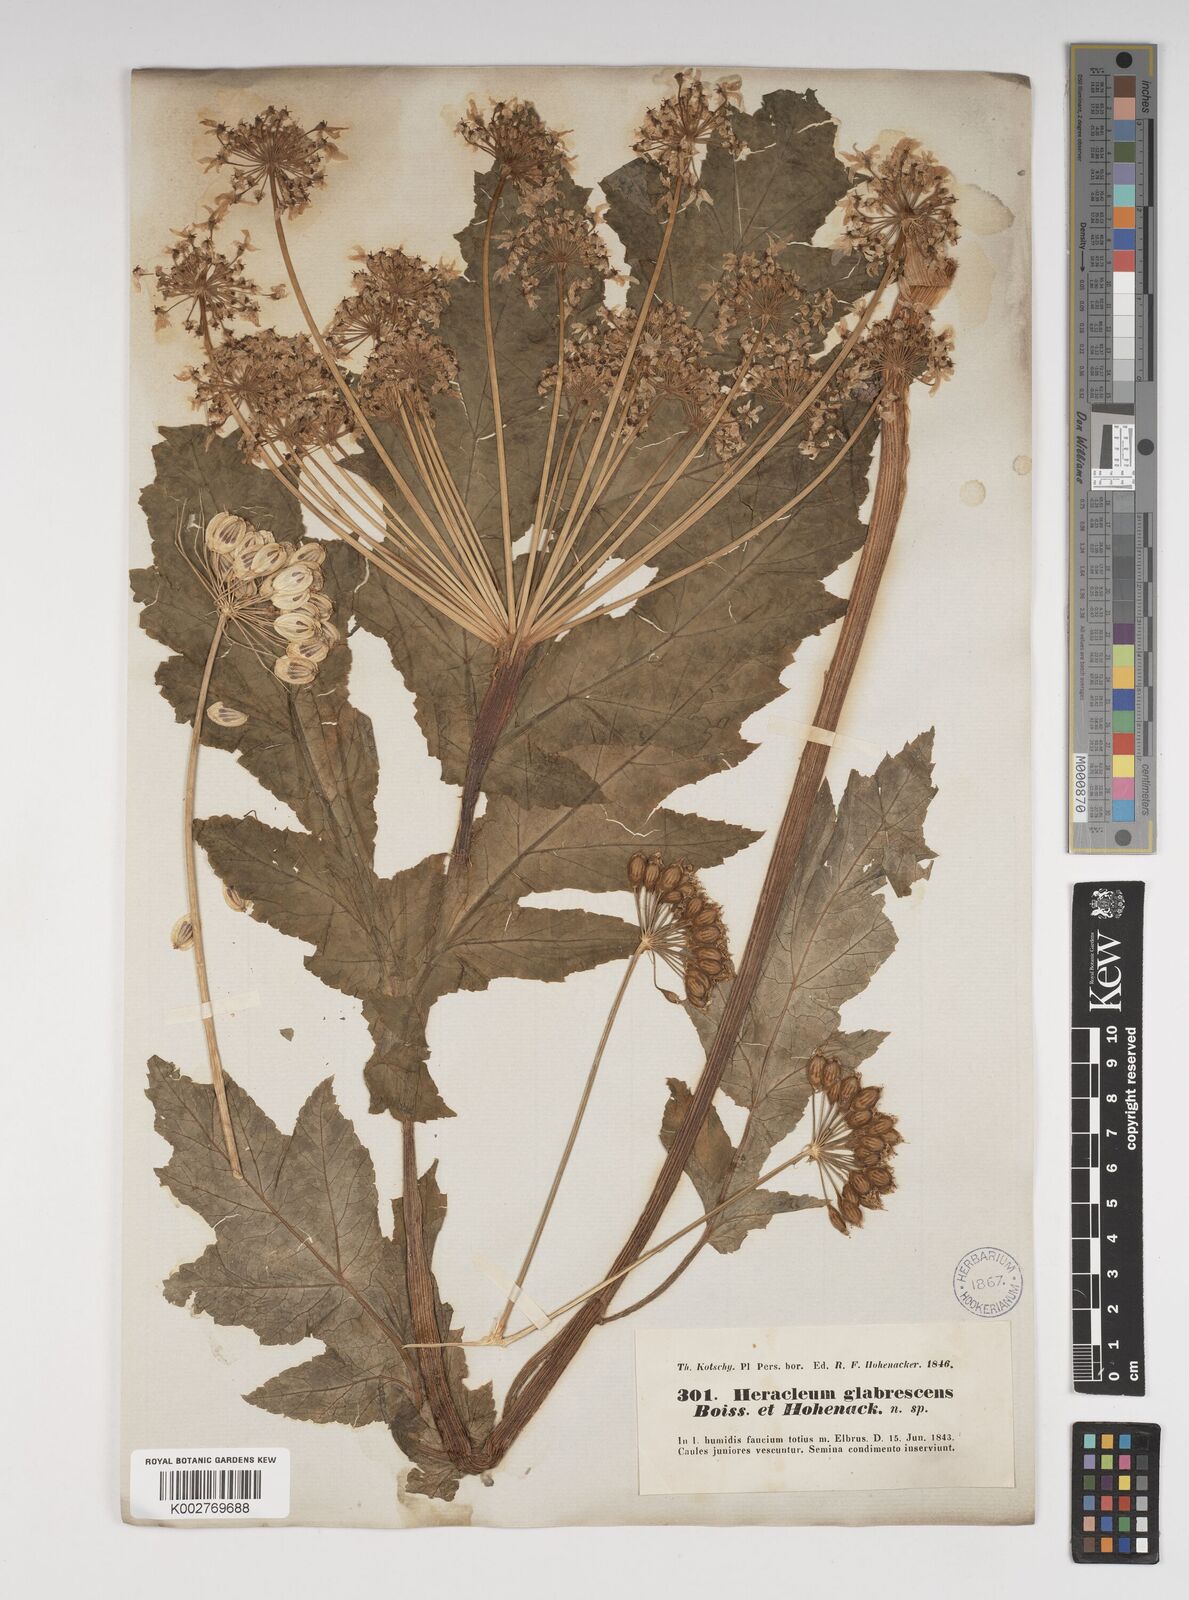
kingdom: Plantae
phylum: Tracheophyta
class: Magnoliopsida
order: Apiales
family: Apiaceae
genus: Heracleum
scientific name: Heracleum persicum
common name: Persian hogweed
